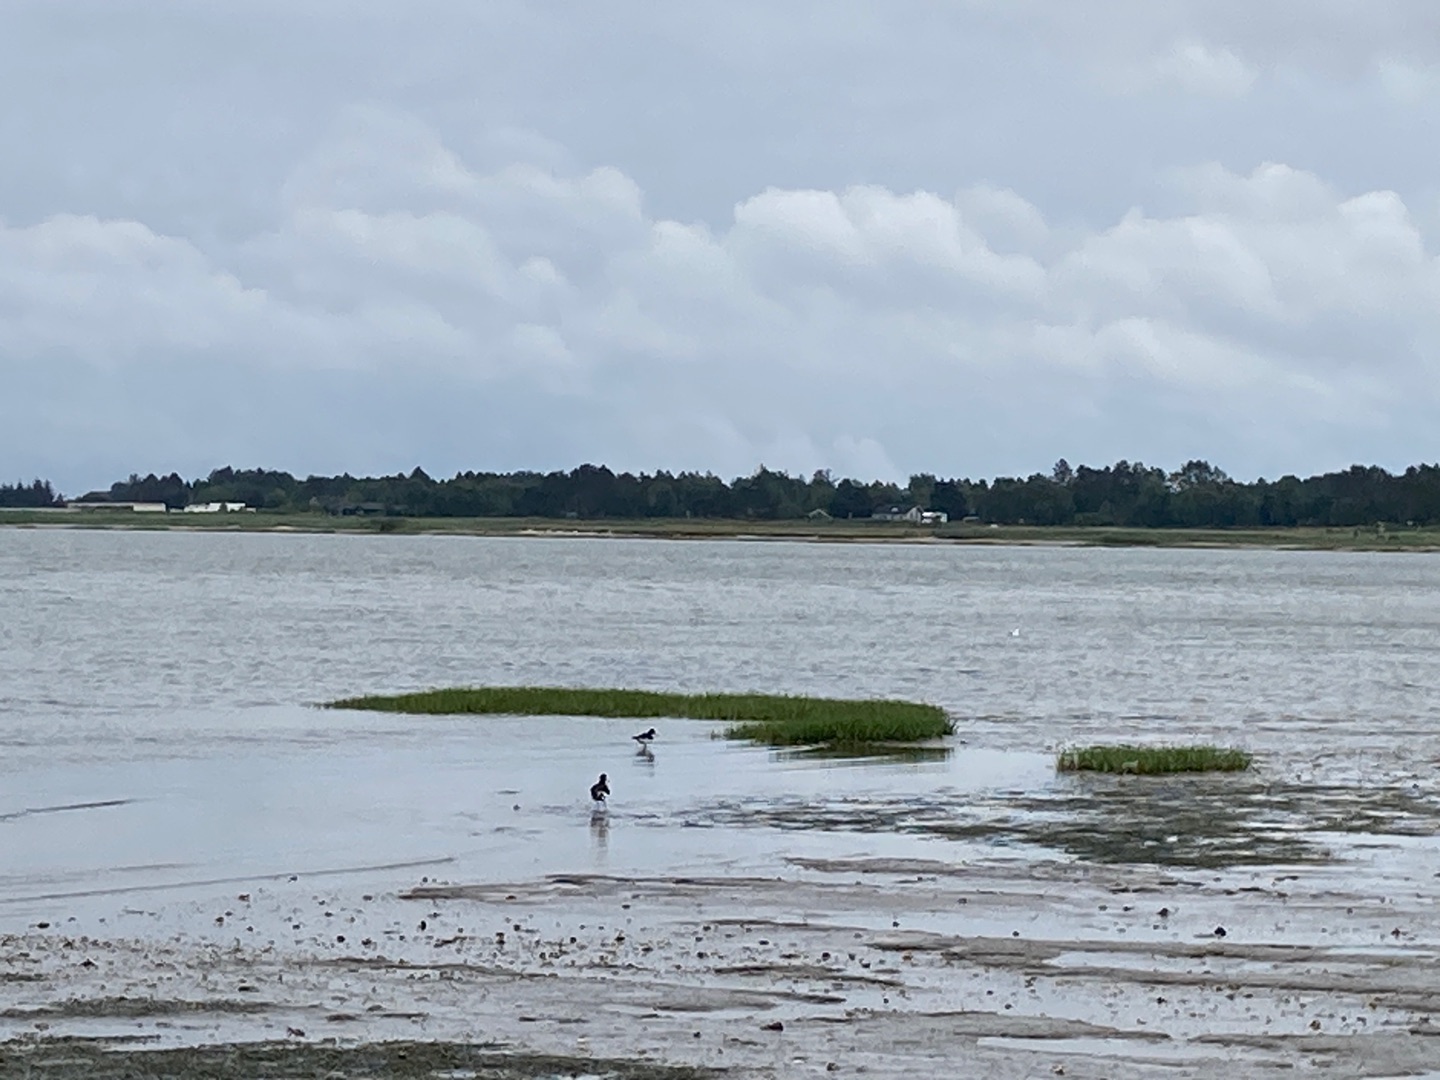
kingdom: Animalia
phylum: Chordata
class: Aves
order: Charadriiformes
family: Haematopodidae
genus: Haematopus
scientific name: Haematopus ostralegus
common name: Strandskade
